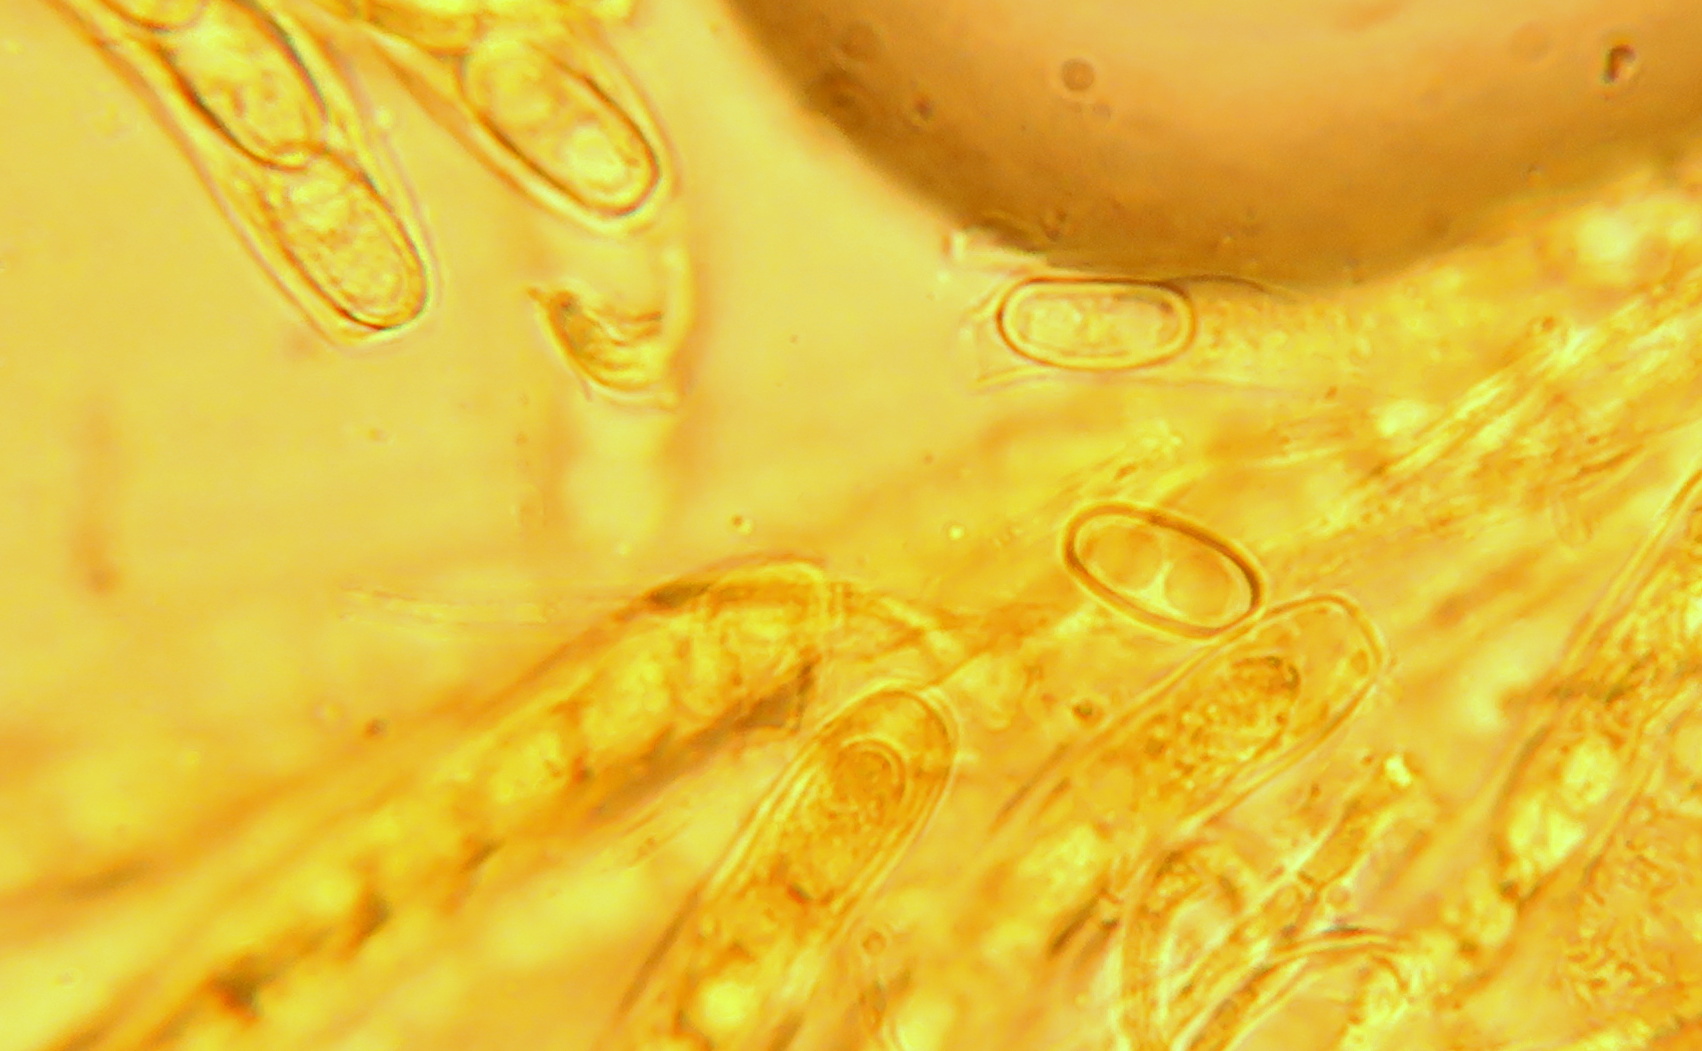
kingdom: Fungi
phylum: Ascomycota
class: Pezizomycetes
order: Pezizales
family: Otideaceae
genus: Otidea
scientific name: Otidea
